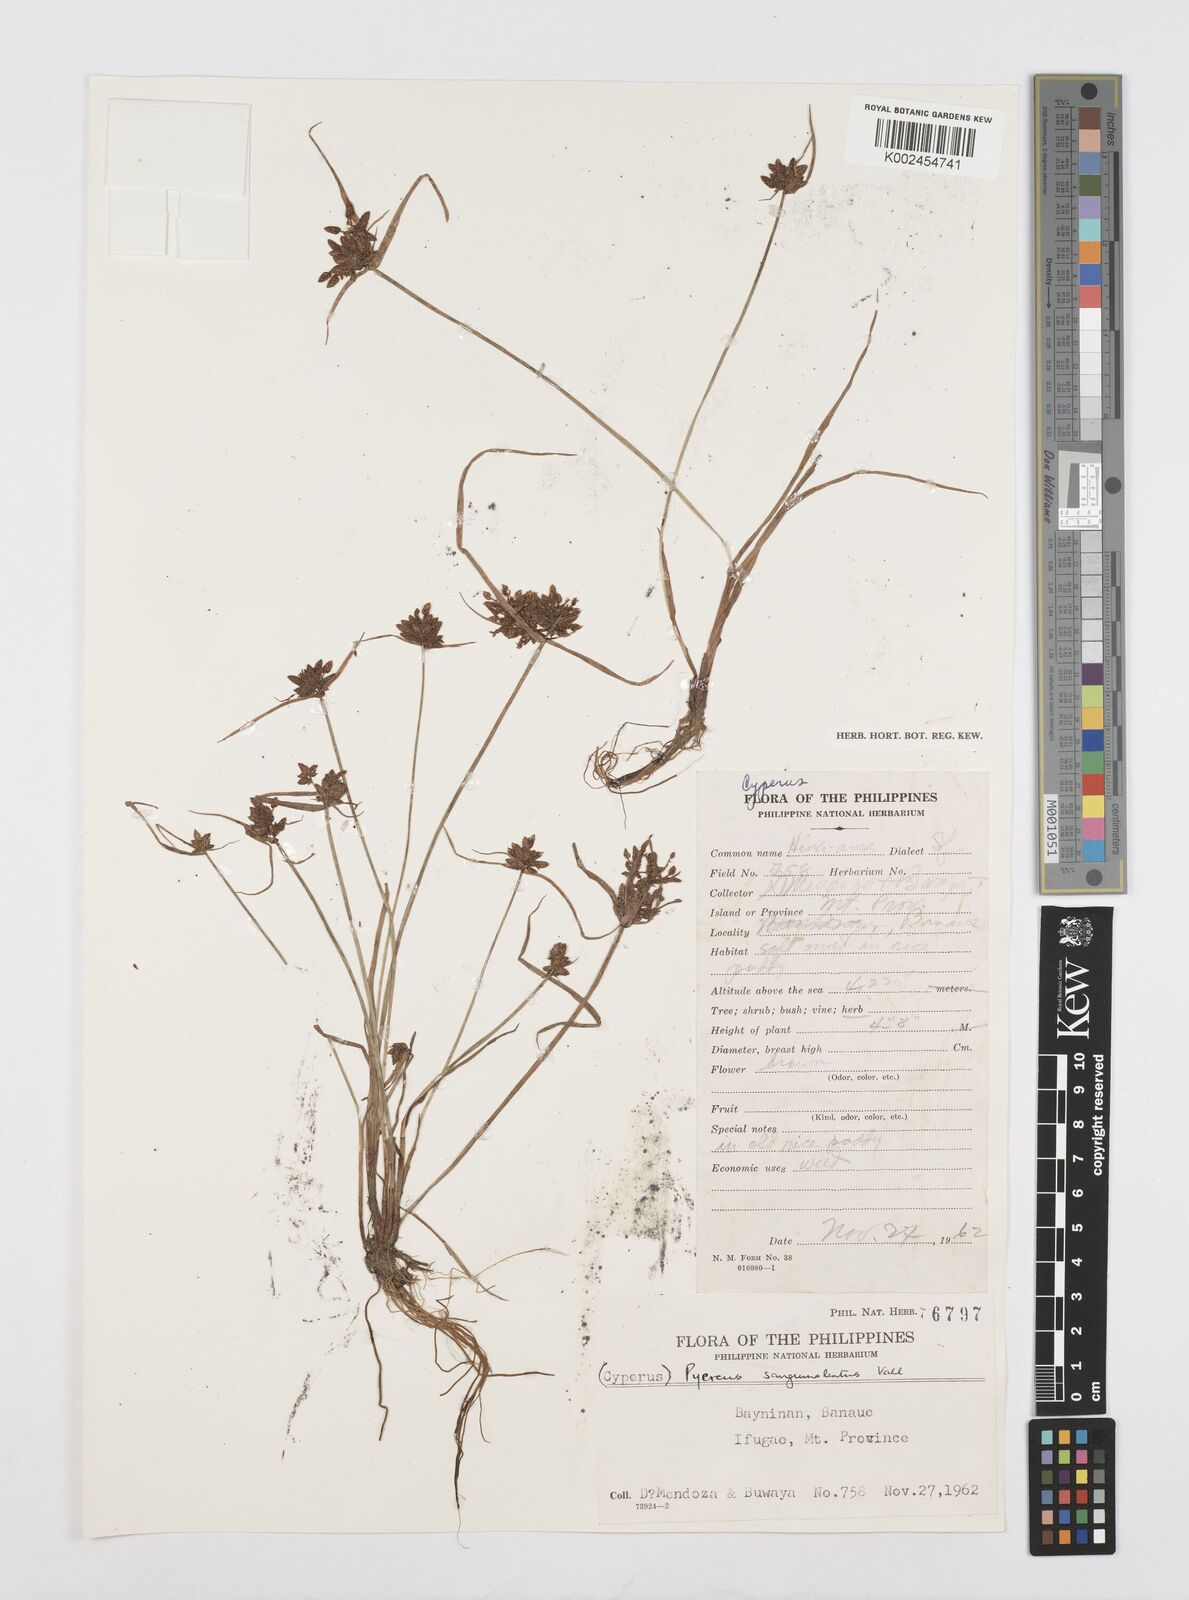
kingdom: Plantae
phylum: Tracheophyta
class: Liliopsida
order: Poales
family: Cyperaceae
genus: Cyperus
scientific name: Cyperus sanguinolentus
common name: Purpleglume flatsedge
